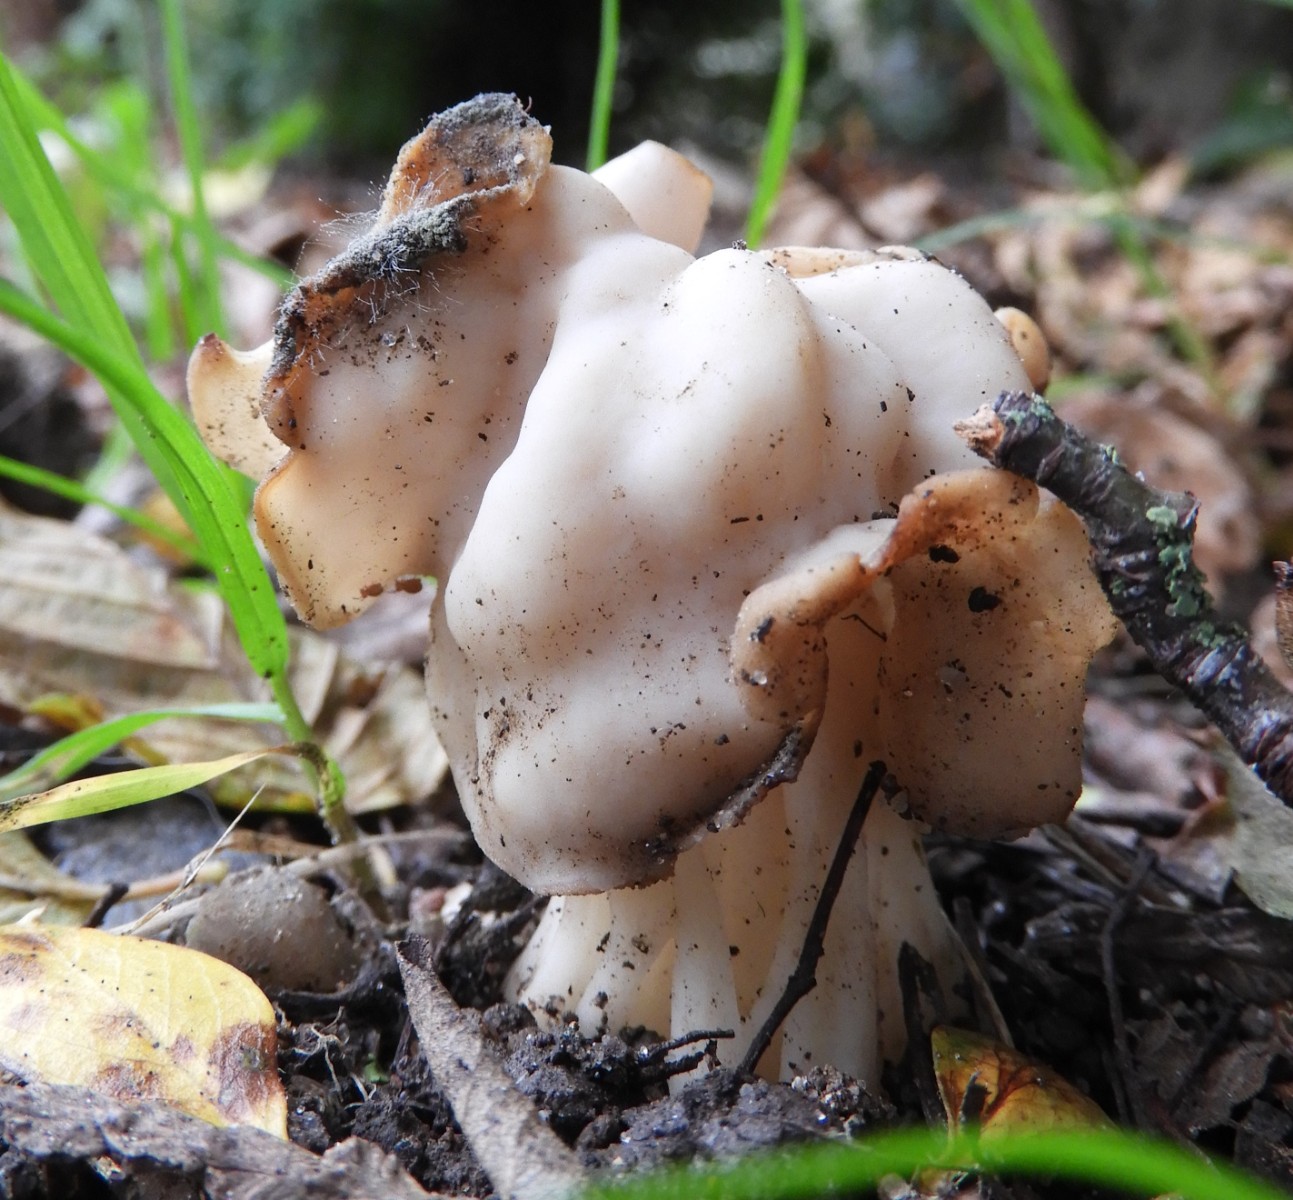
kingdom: Fungi
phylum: Ascomycota
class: Pezizomycetes
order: Pezizales
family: Helvellaceae
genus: Helvella
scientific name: Helvella crispa
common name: kruset foldhat
